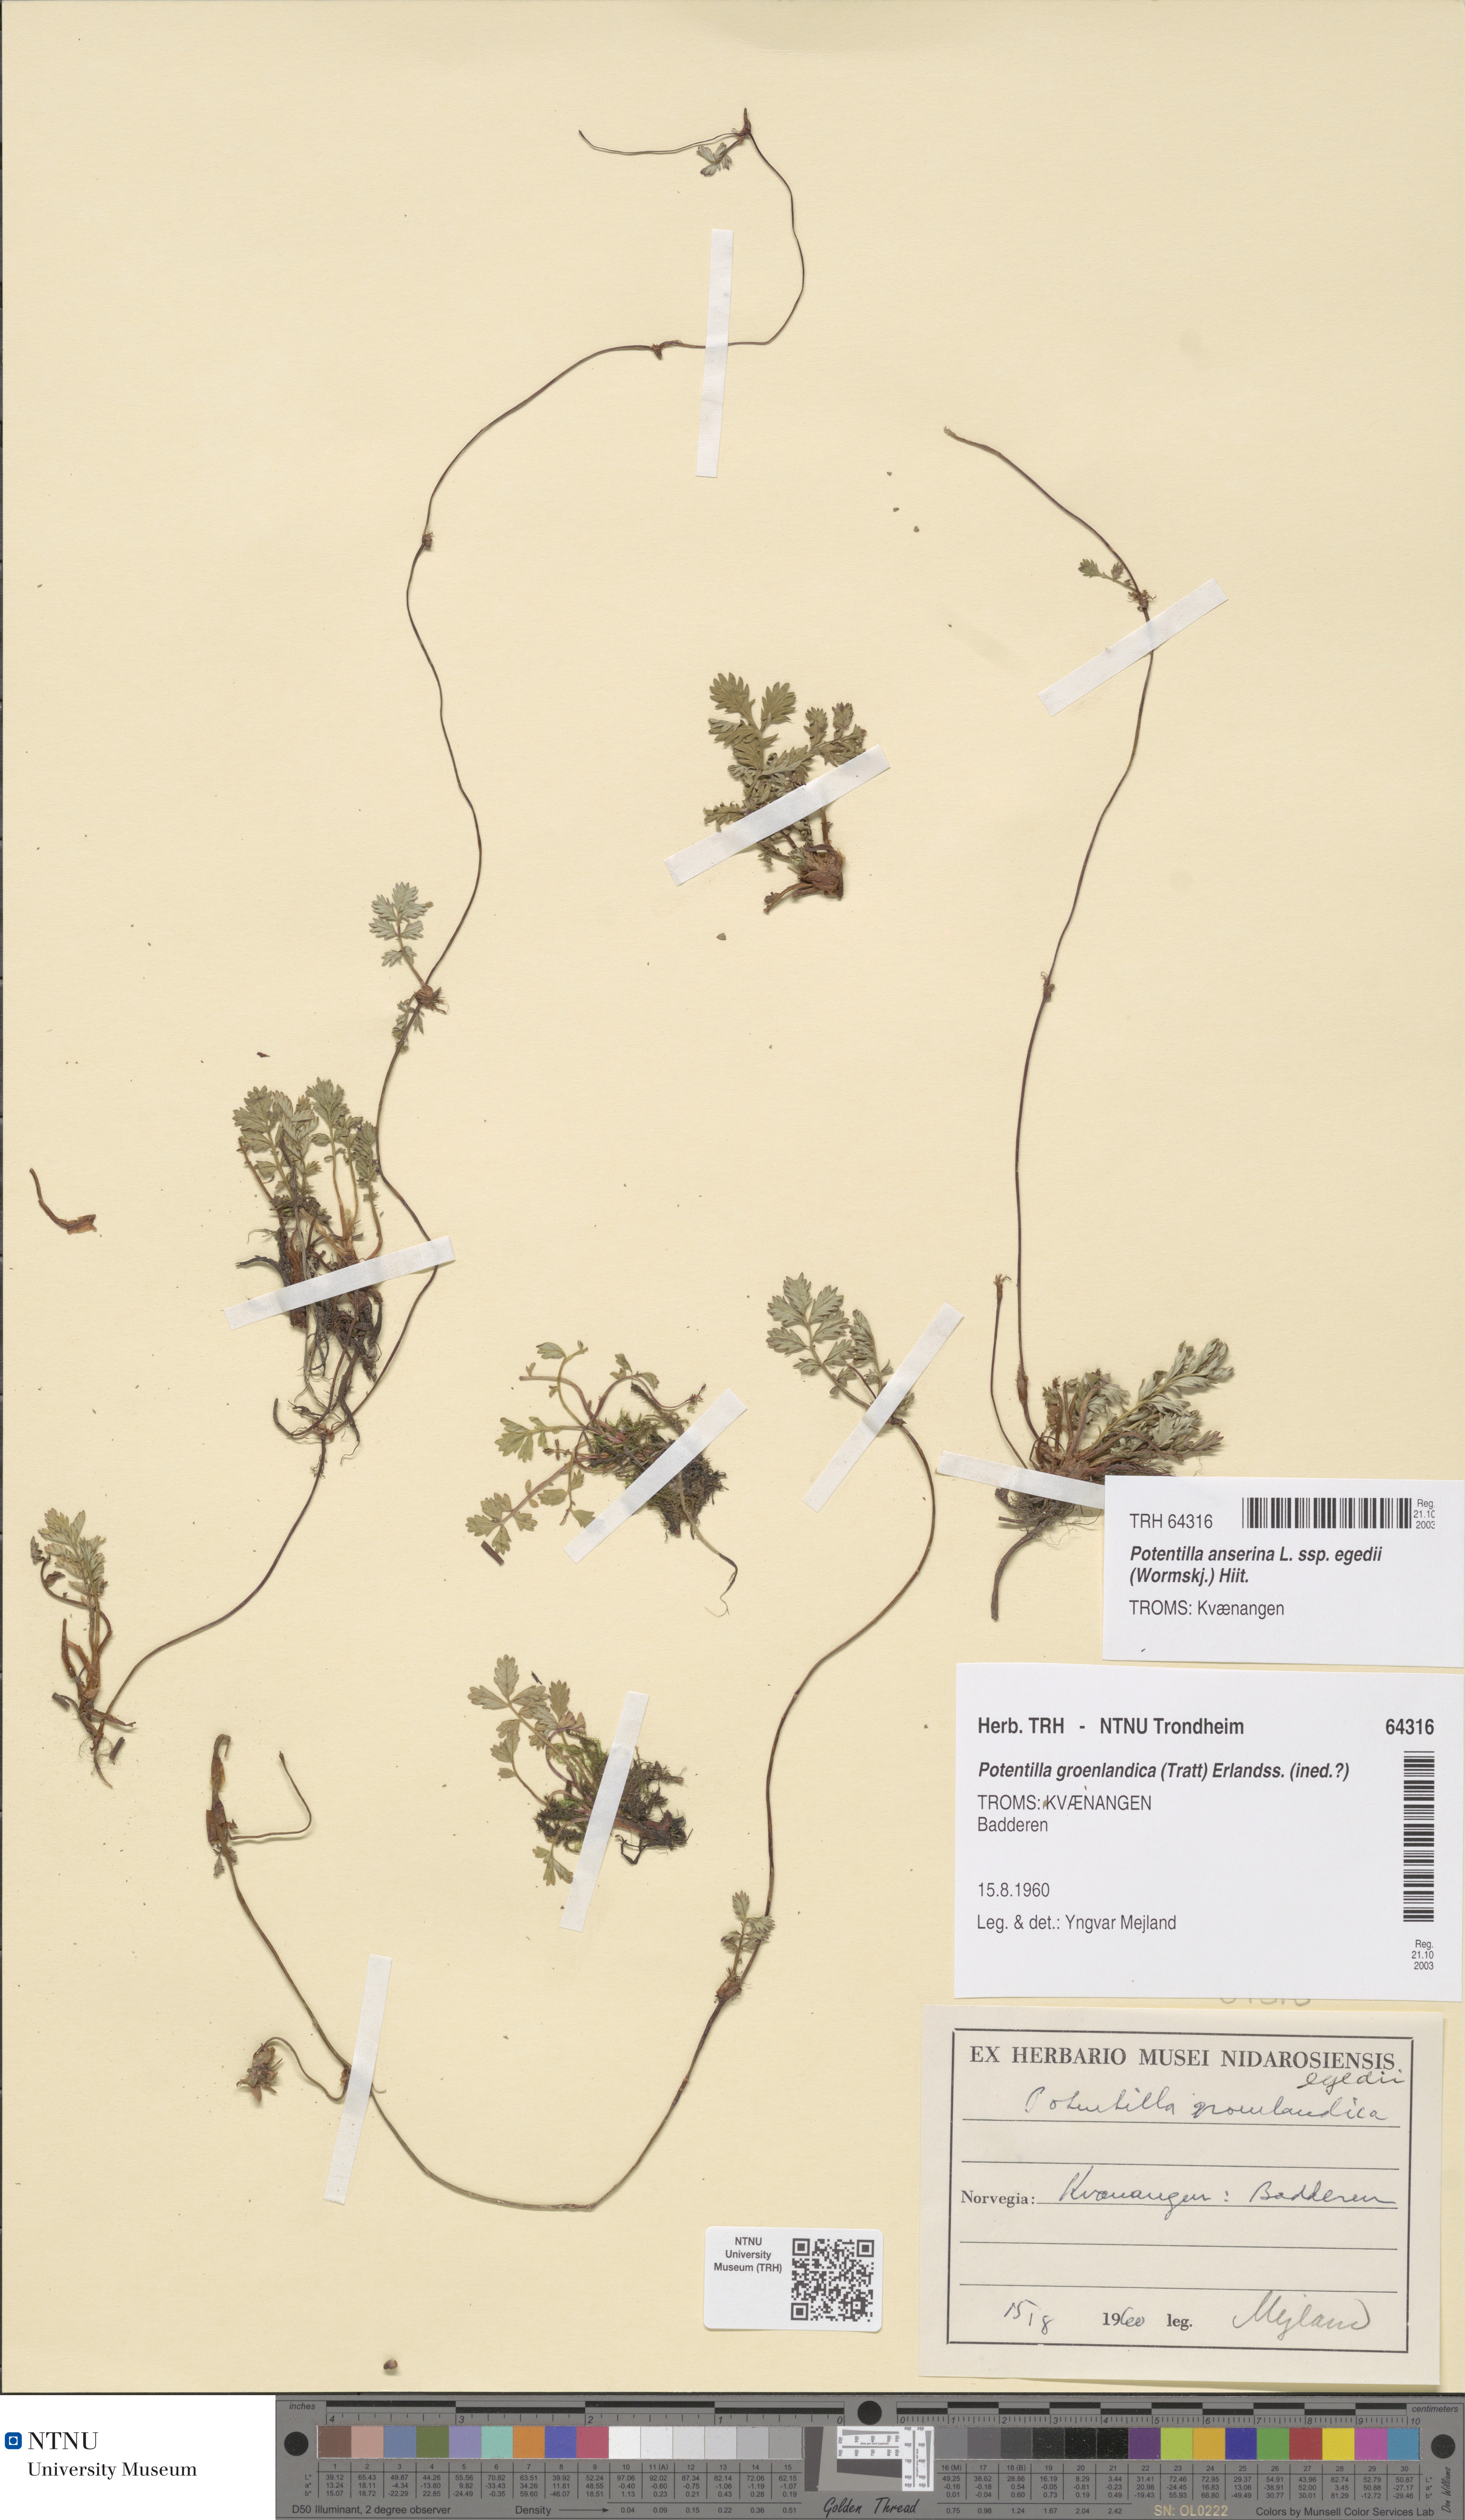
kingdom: Plantae
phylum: Tracheophyta
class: Magnoliopsida
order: Rosales
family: Rosaceae
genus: Argentina
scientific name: Argentina anserina
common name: Common silverweed
